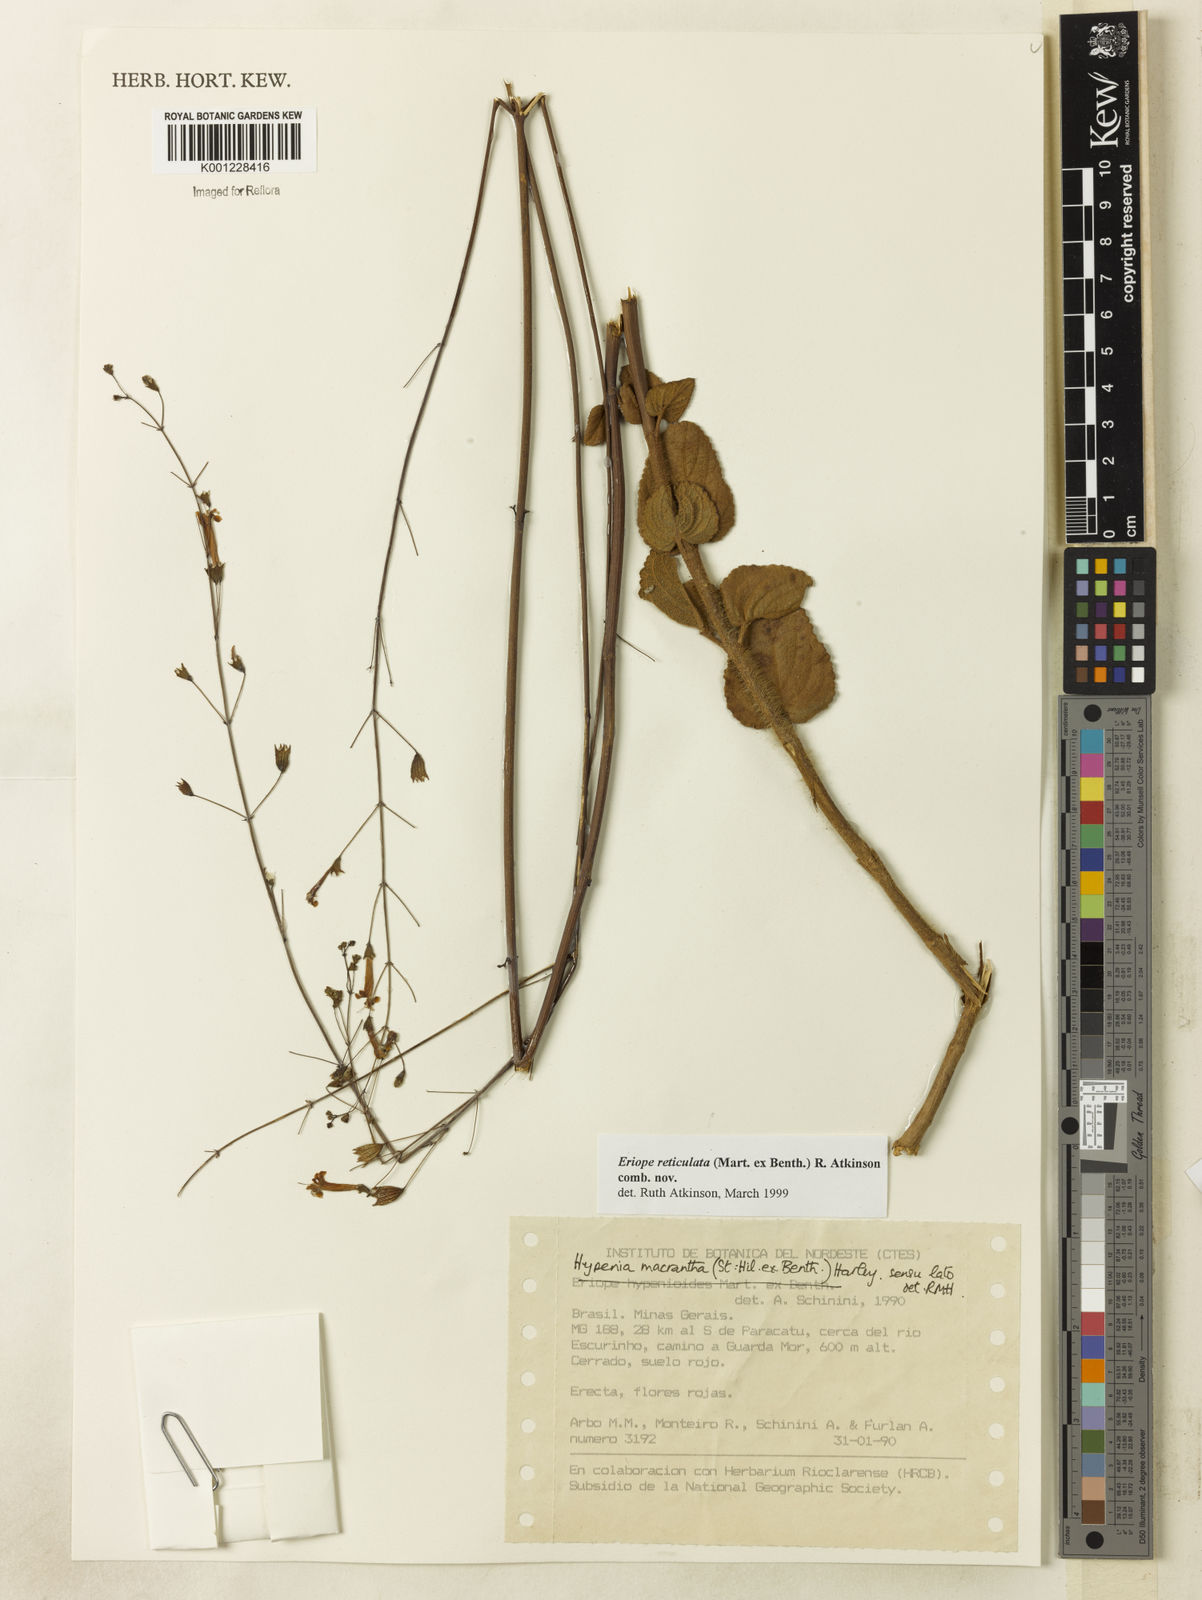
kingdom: Plantae
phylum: Tracheophyta
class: Magnoliopsida
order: Lamiales
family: Lamiaceae
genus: Hypenia
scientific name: Hypenia reticulata
